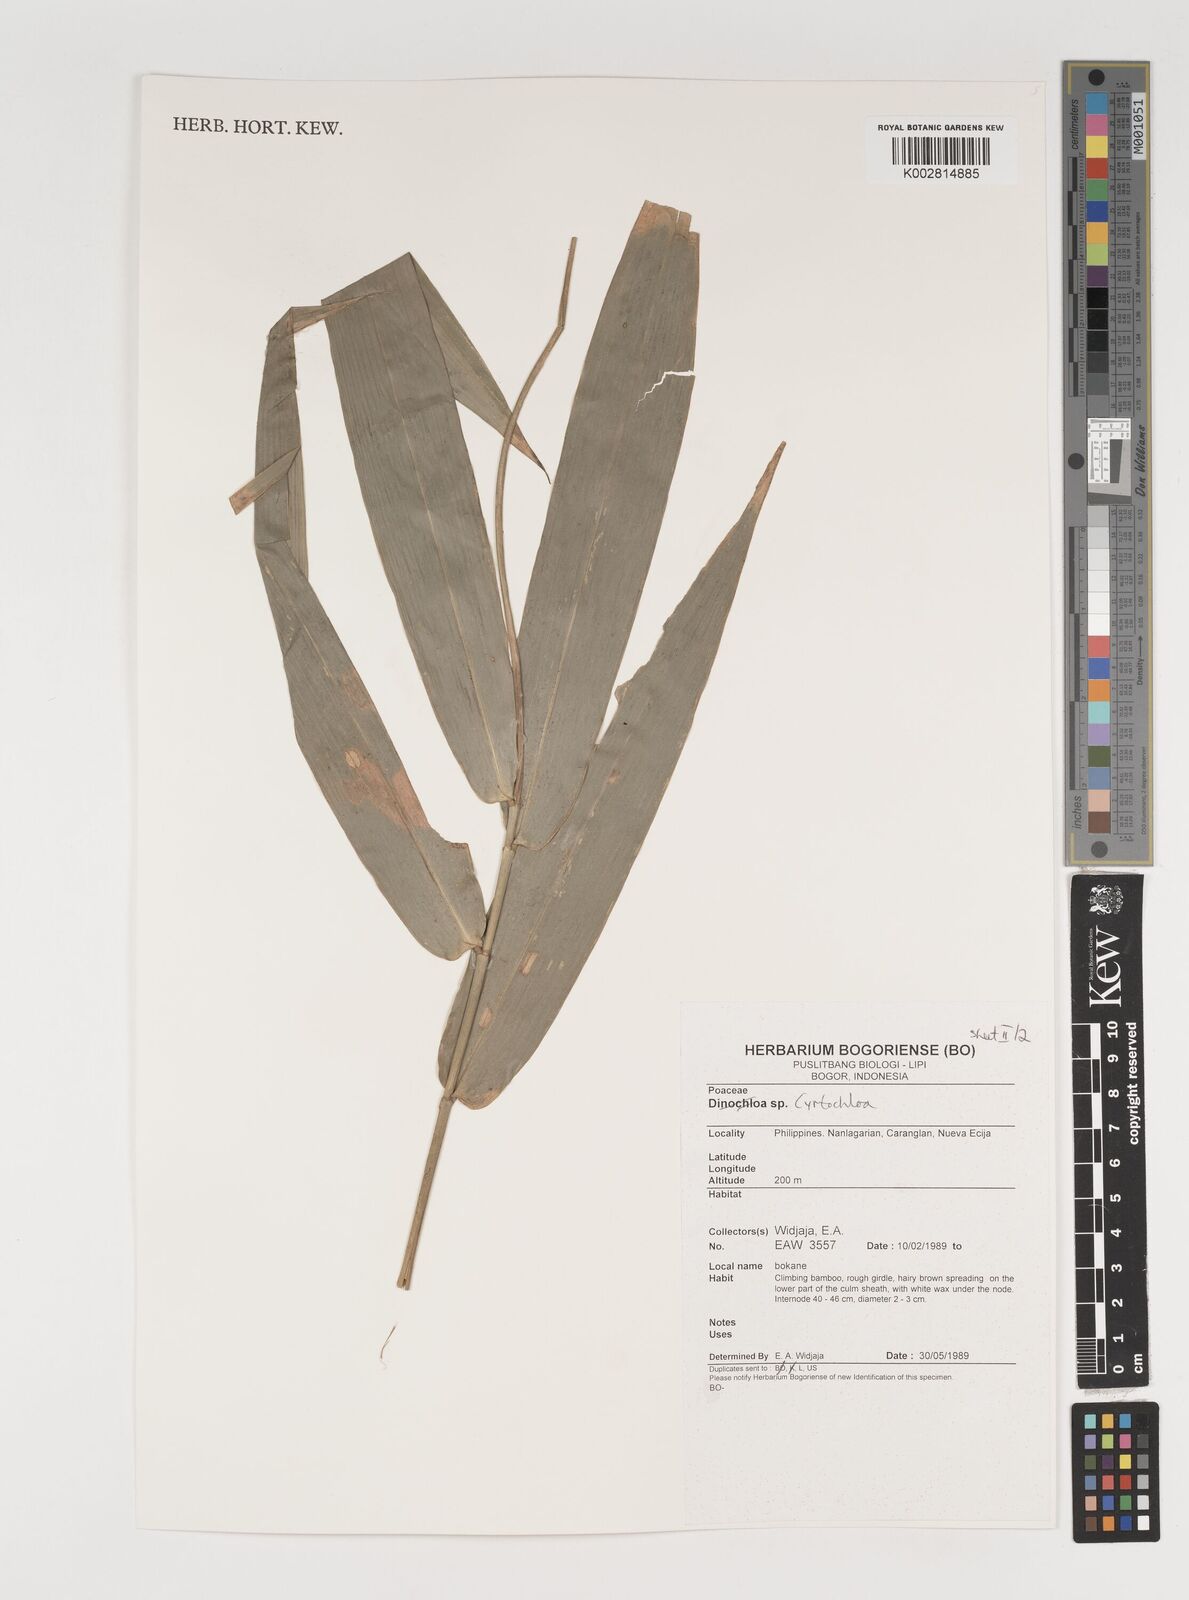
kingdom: Plantae
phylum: Tracheophyta
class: Liliopsida
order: Poales
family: Poaceae
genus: Fimbribambusa
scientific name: Fimbribambusa
